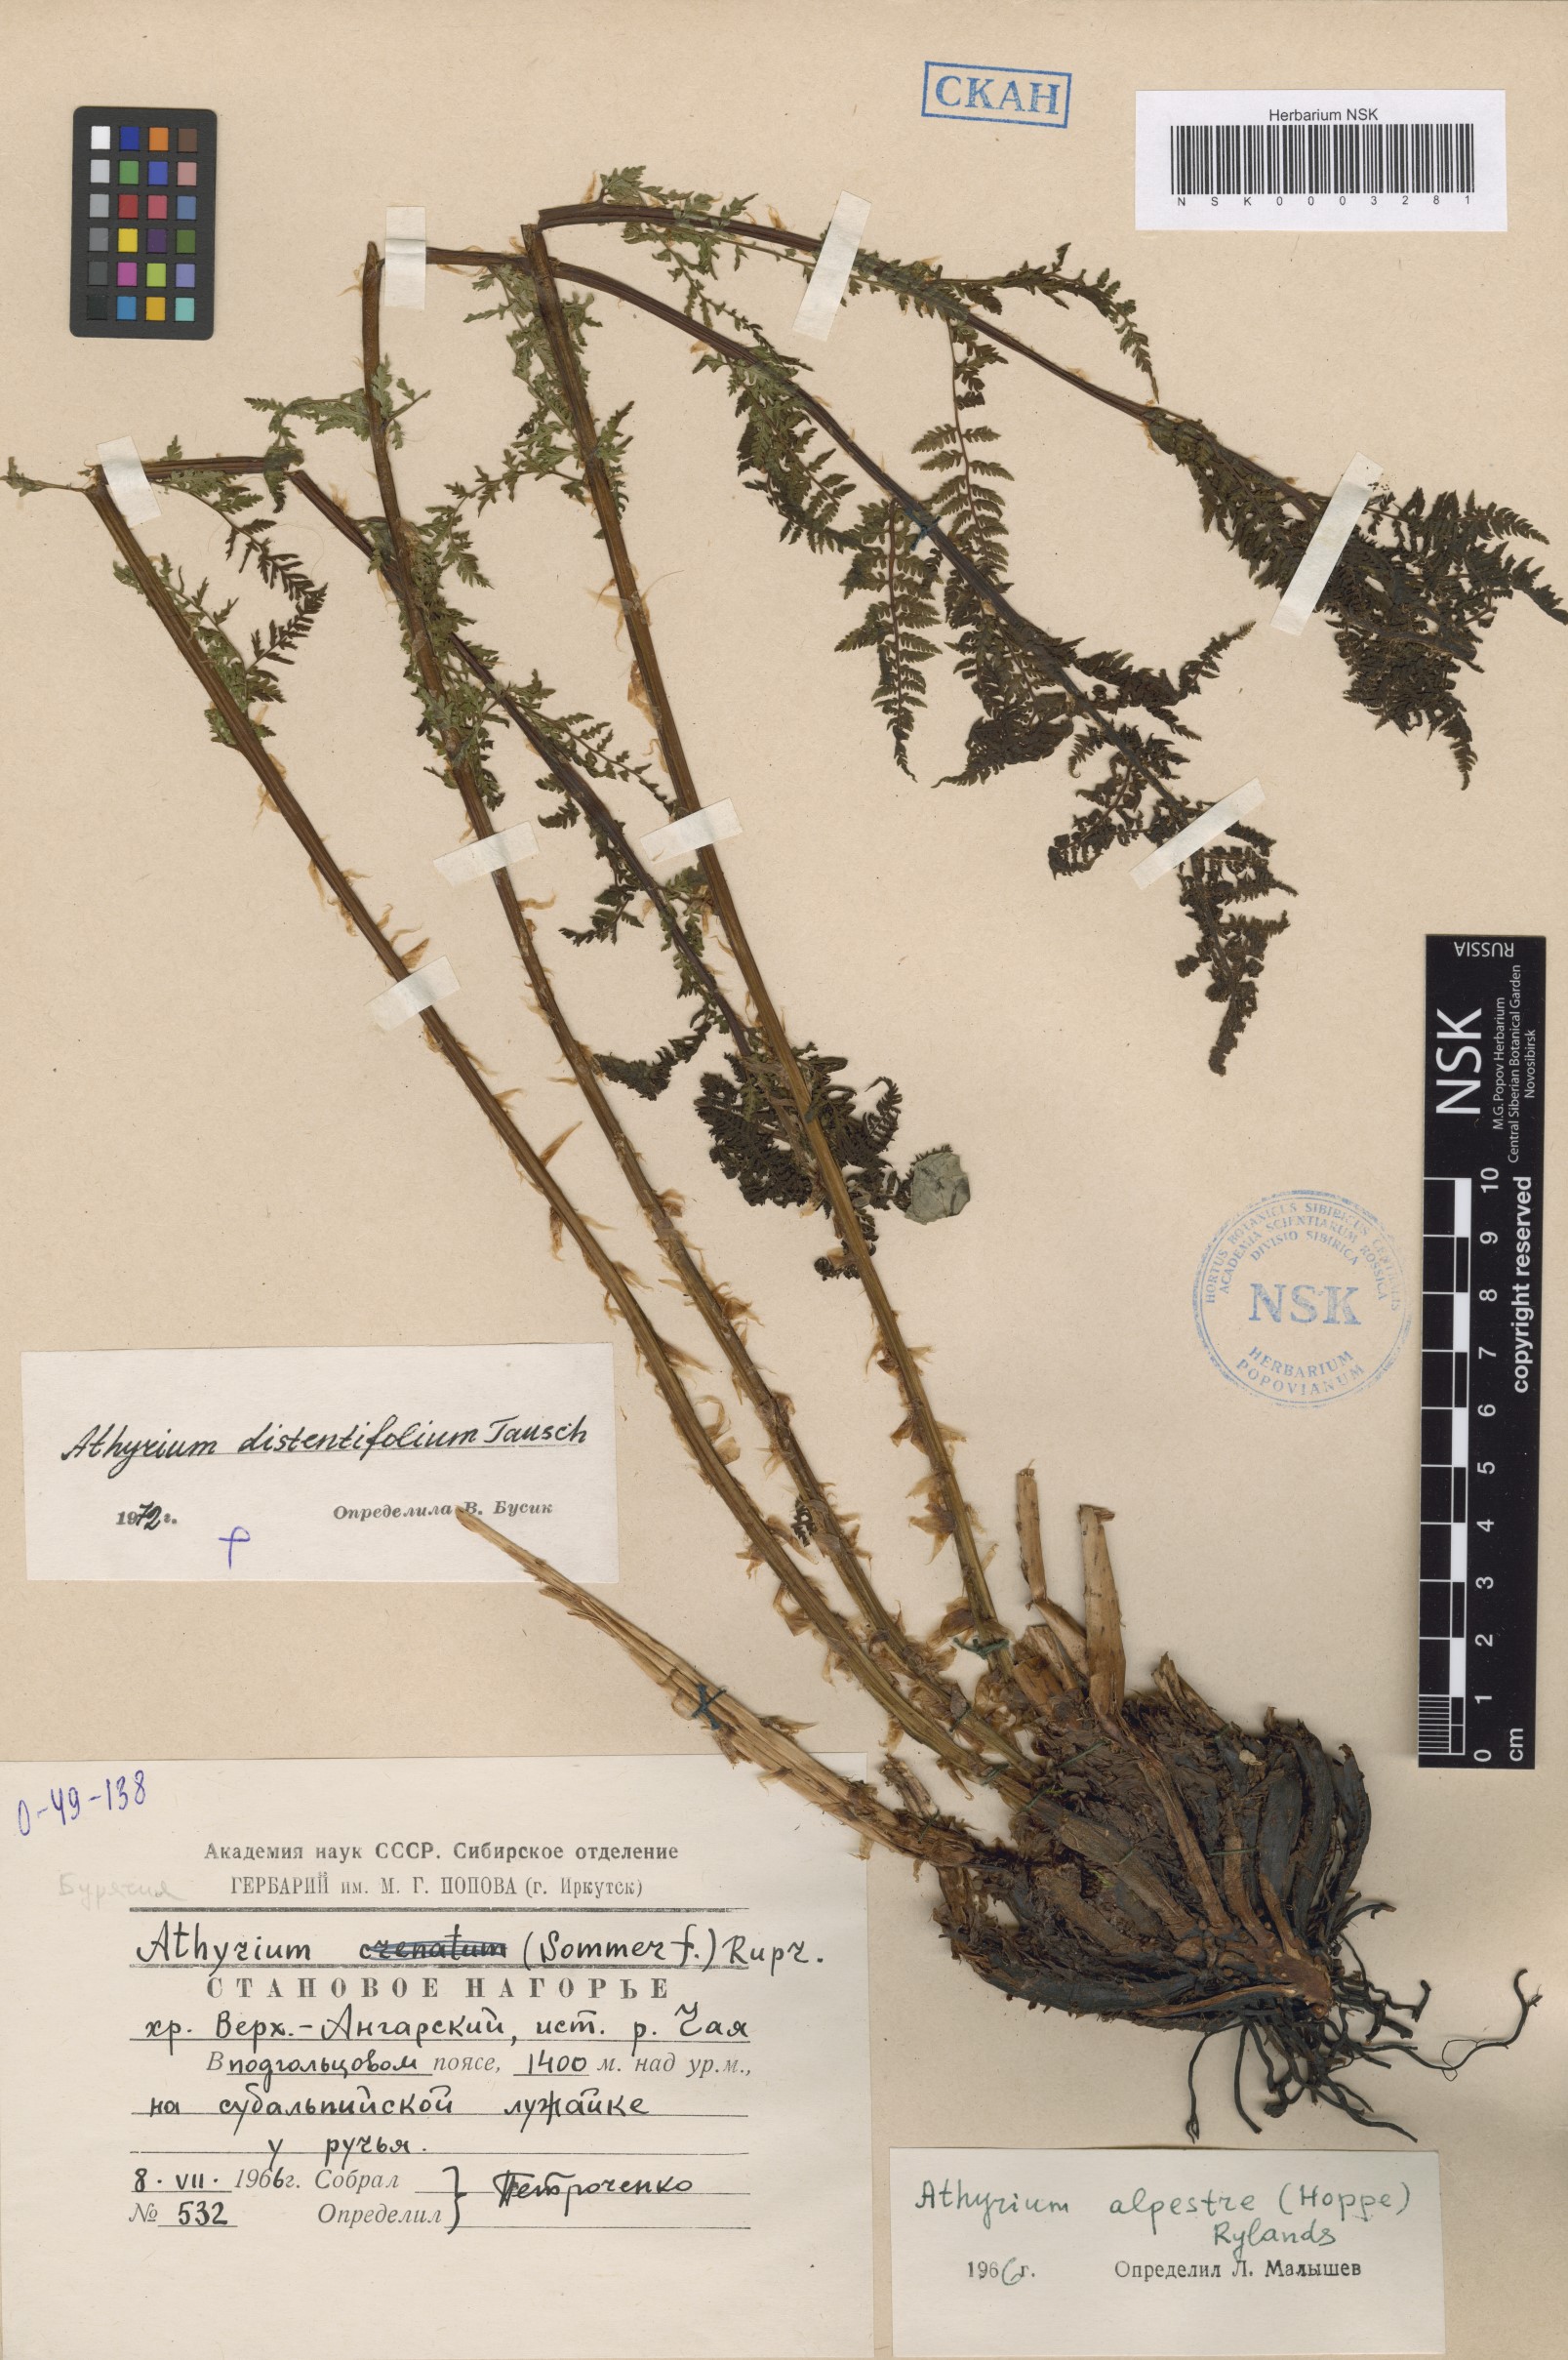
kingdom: Plantae
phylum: Tracheophyta
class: Polypodiopsida
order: Polypodiales
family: Athyriaceae
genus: Pseudathyrium
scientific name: Pseudathyrium alpestre
